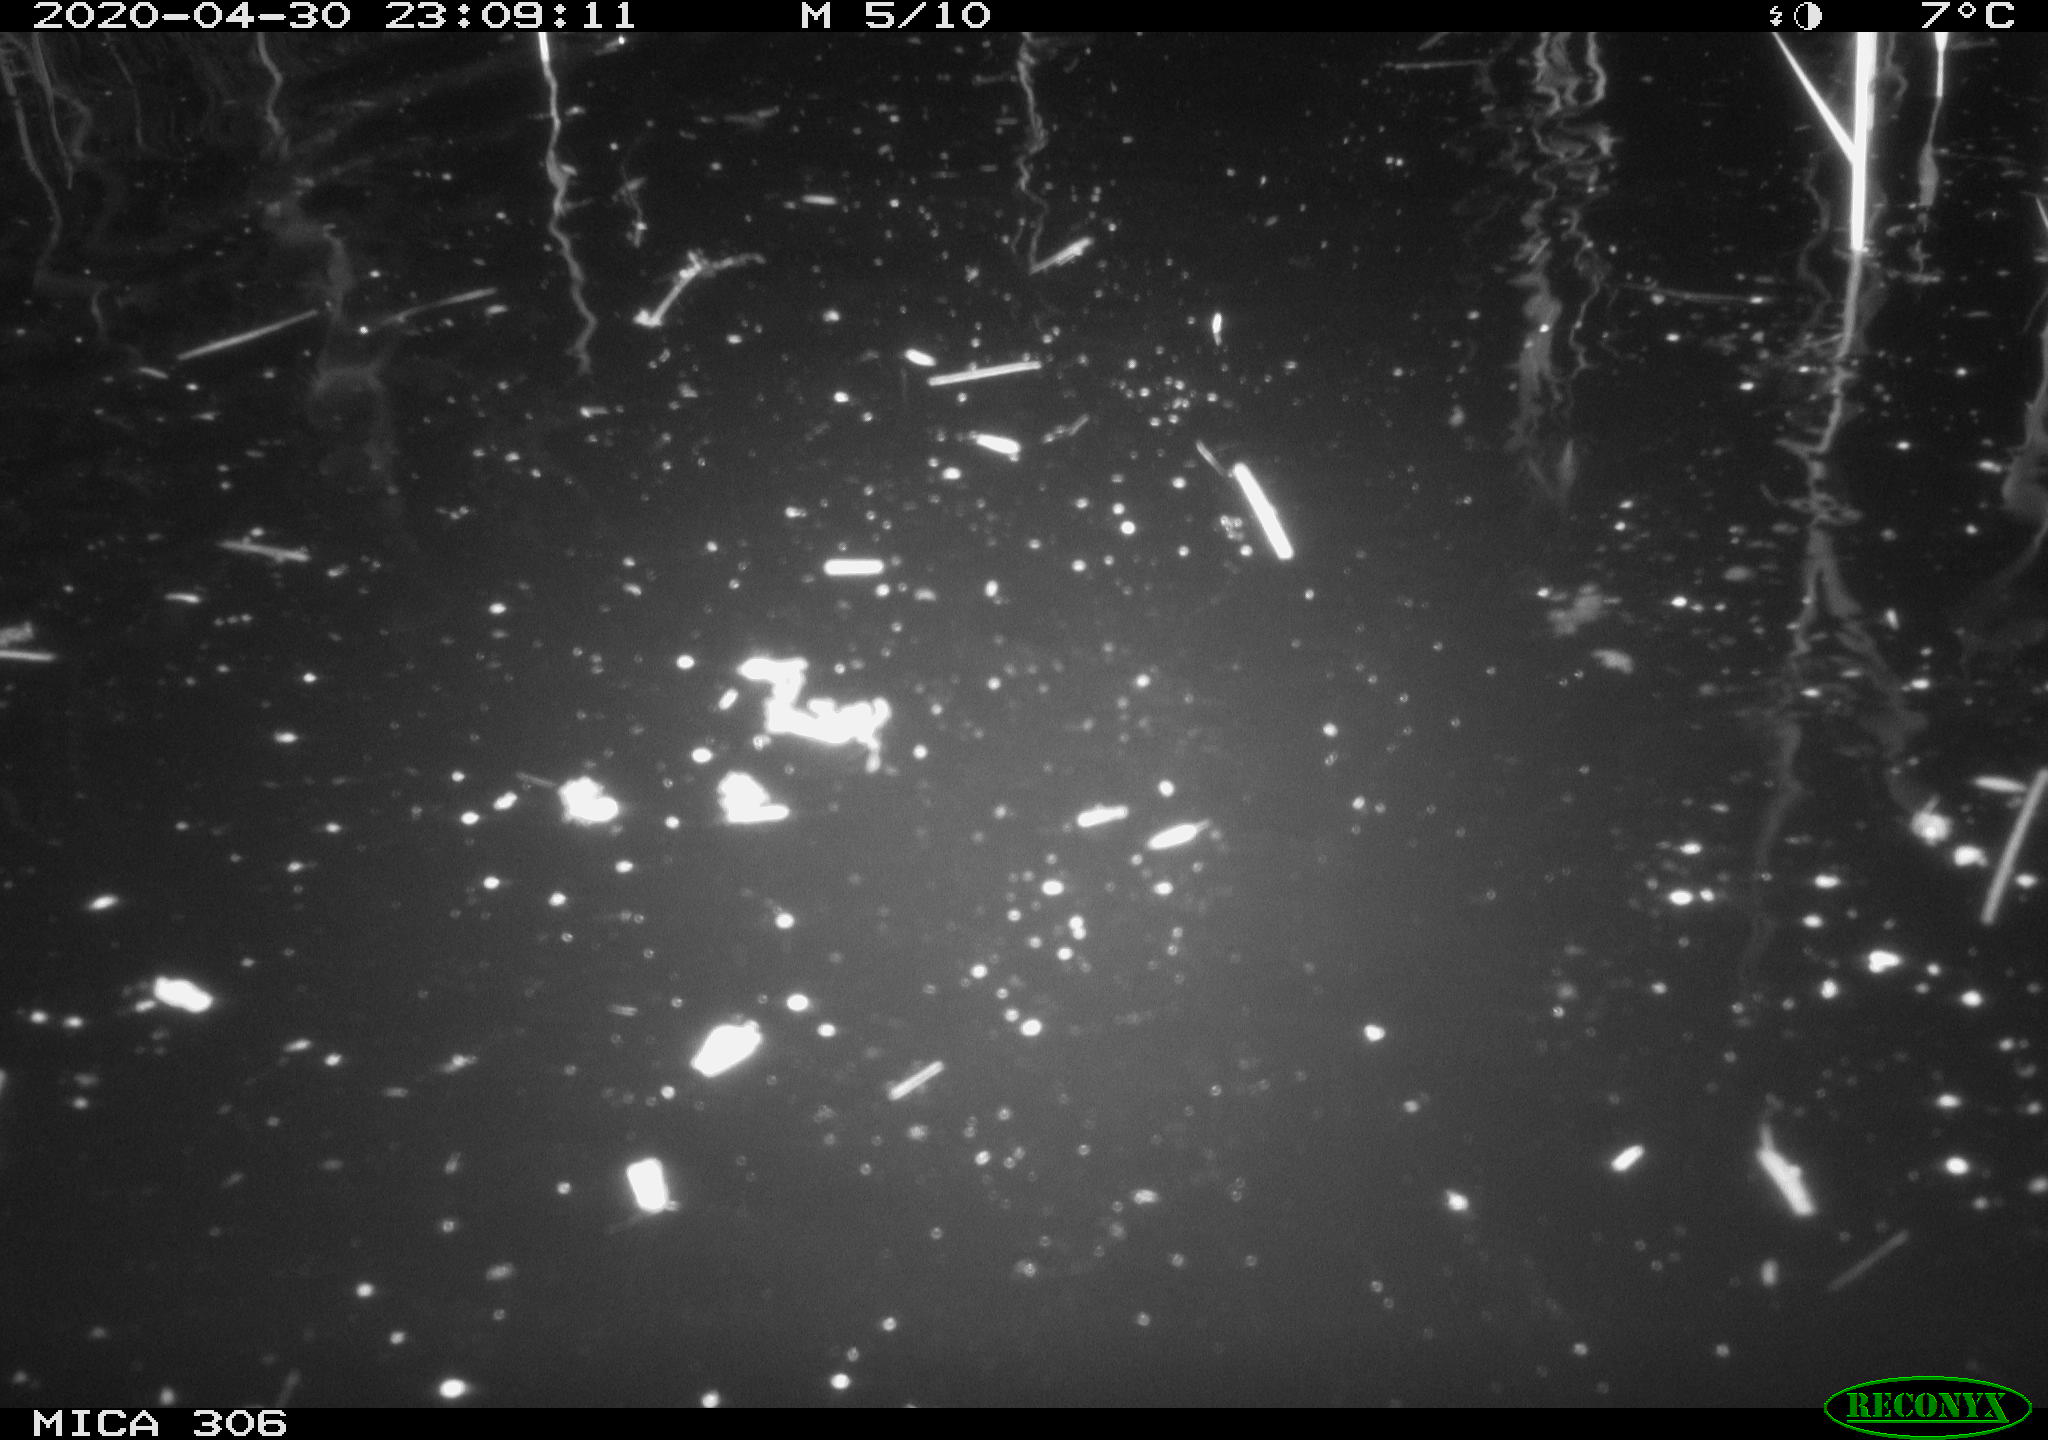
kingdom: Animalia
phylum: Chordata
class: Mammalia
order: Rodentia
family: Cricetidae
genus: Ondatra
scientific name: Ondatra zibethicus
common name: Muskrat
